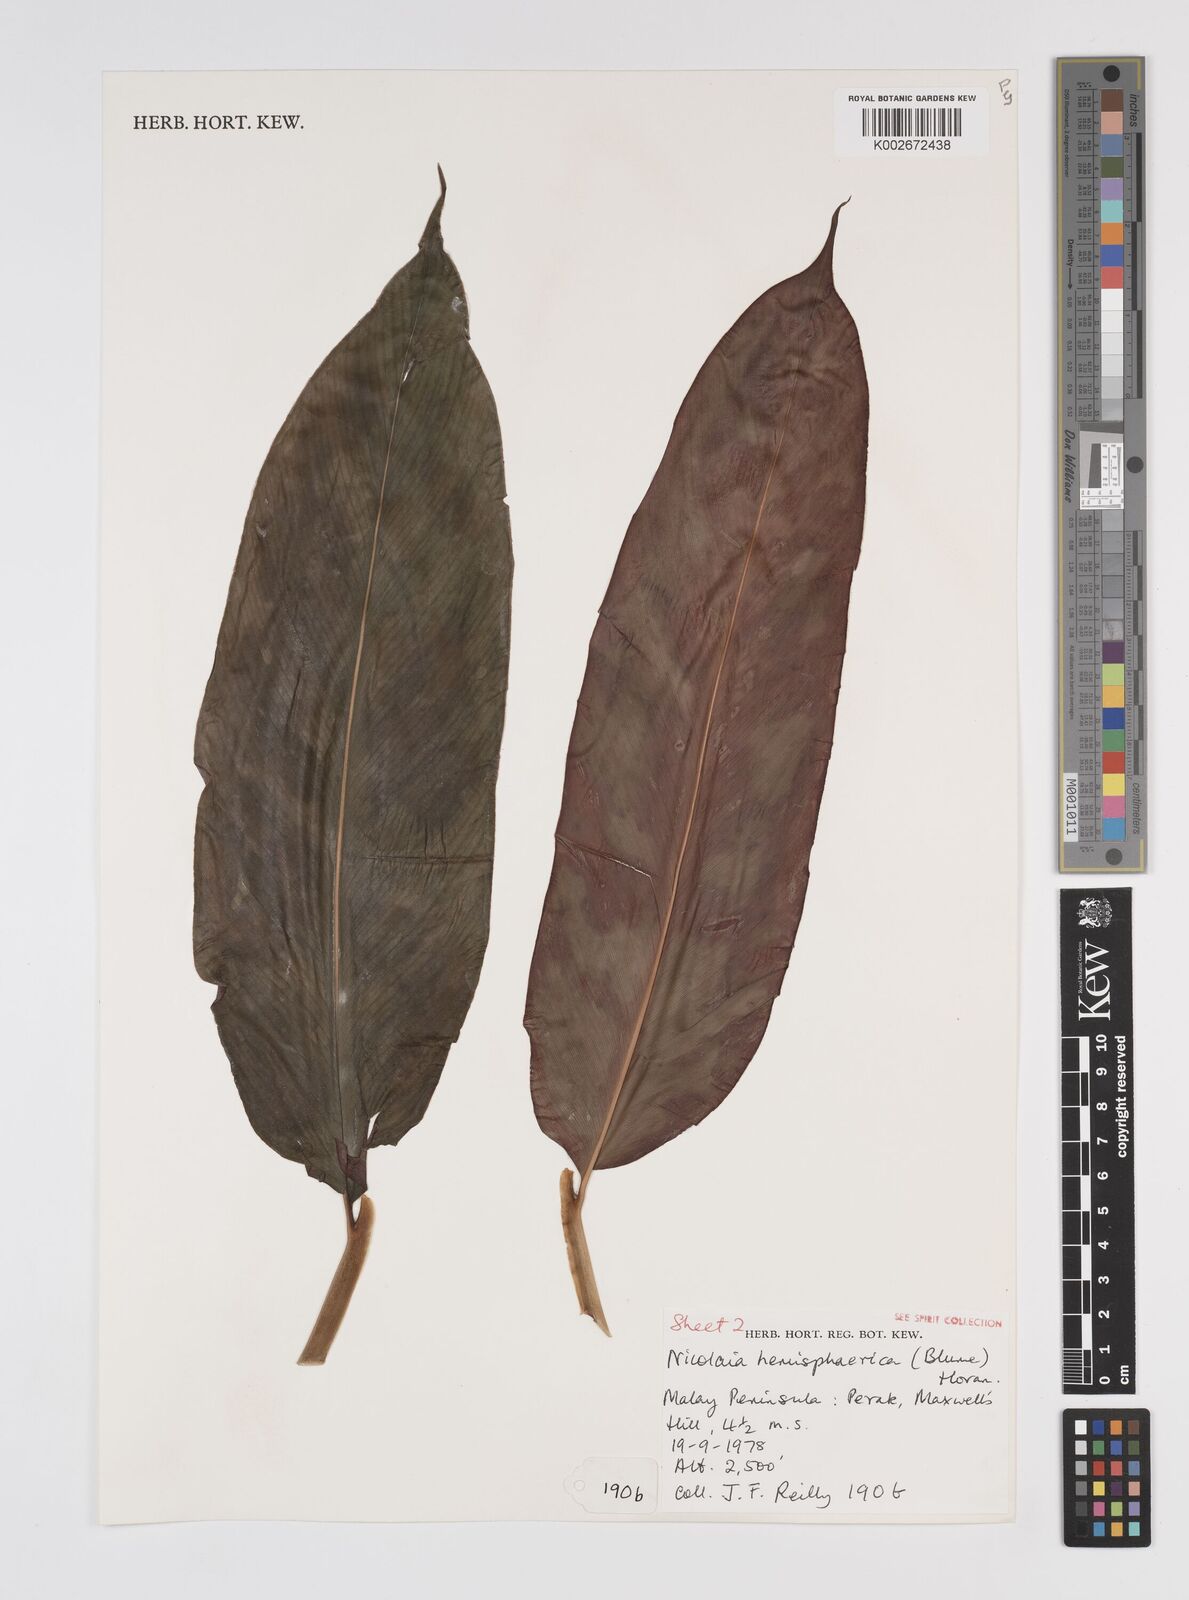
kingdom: Plantae
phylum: Tracheophyta
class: Liliopsida
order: Zingiberales
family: Zingiberaceae
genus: Etlingera
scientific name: Etlingera fulgens
